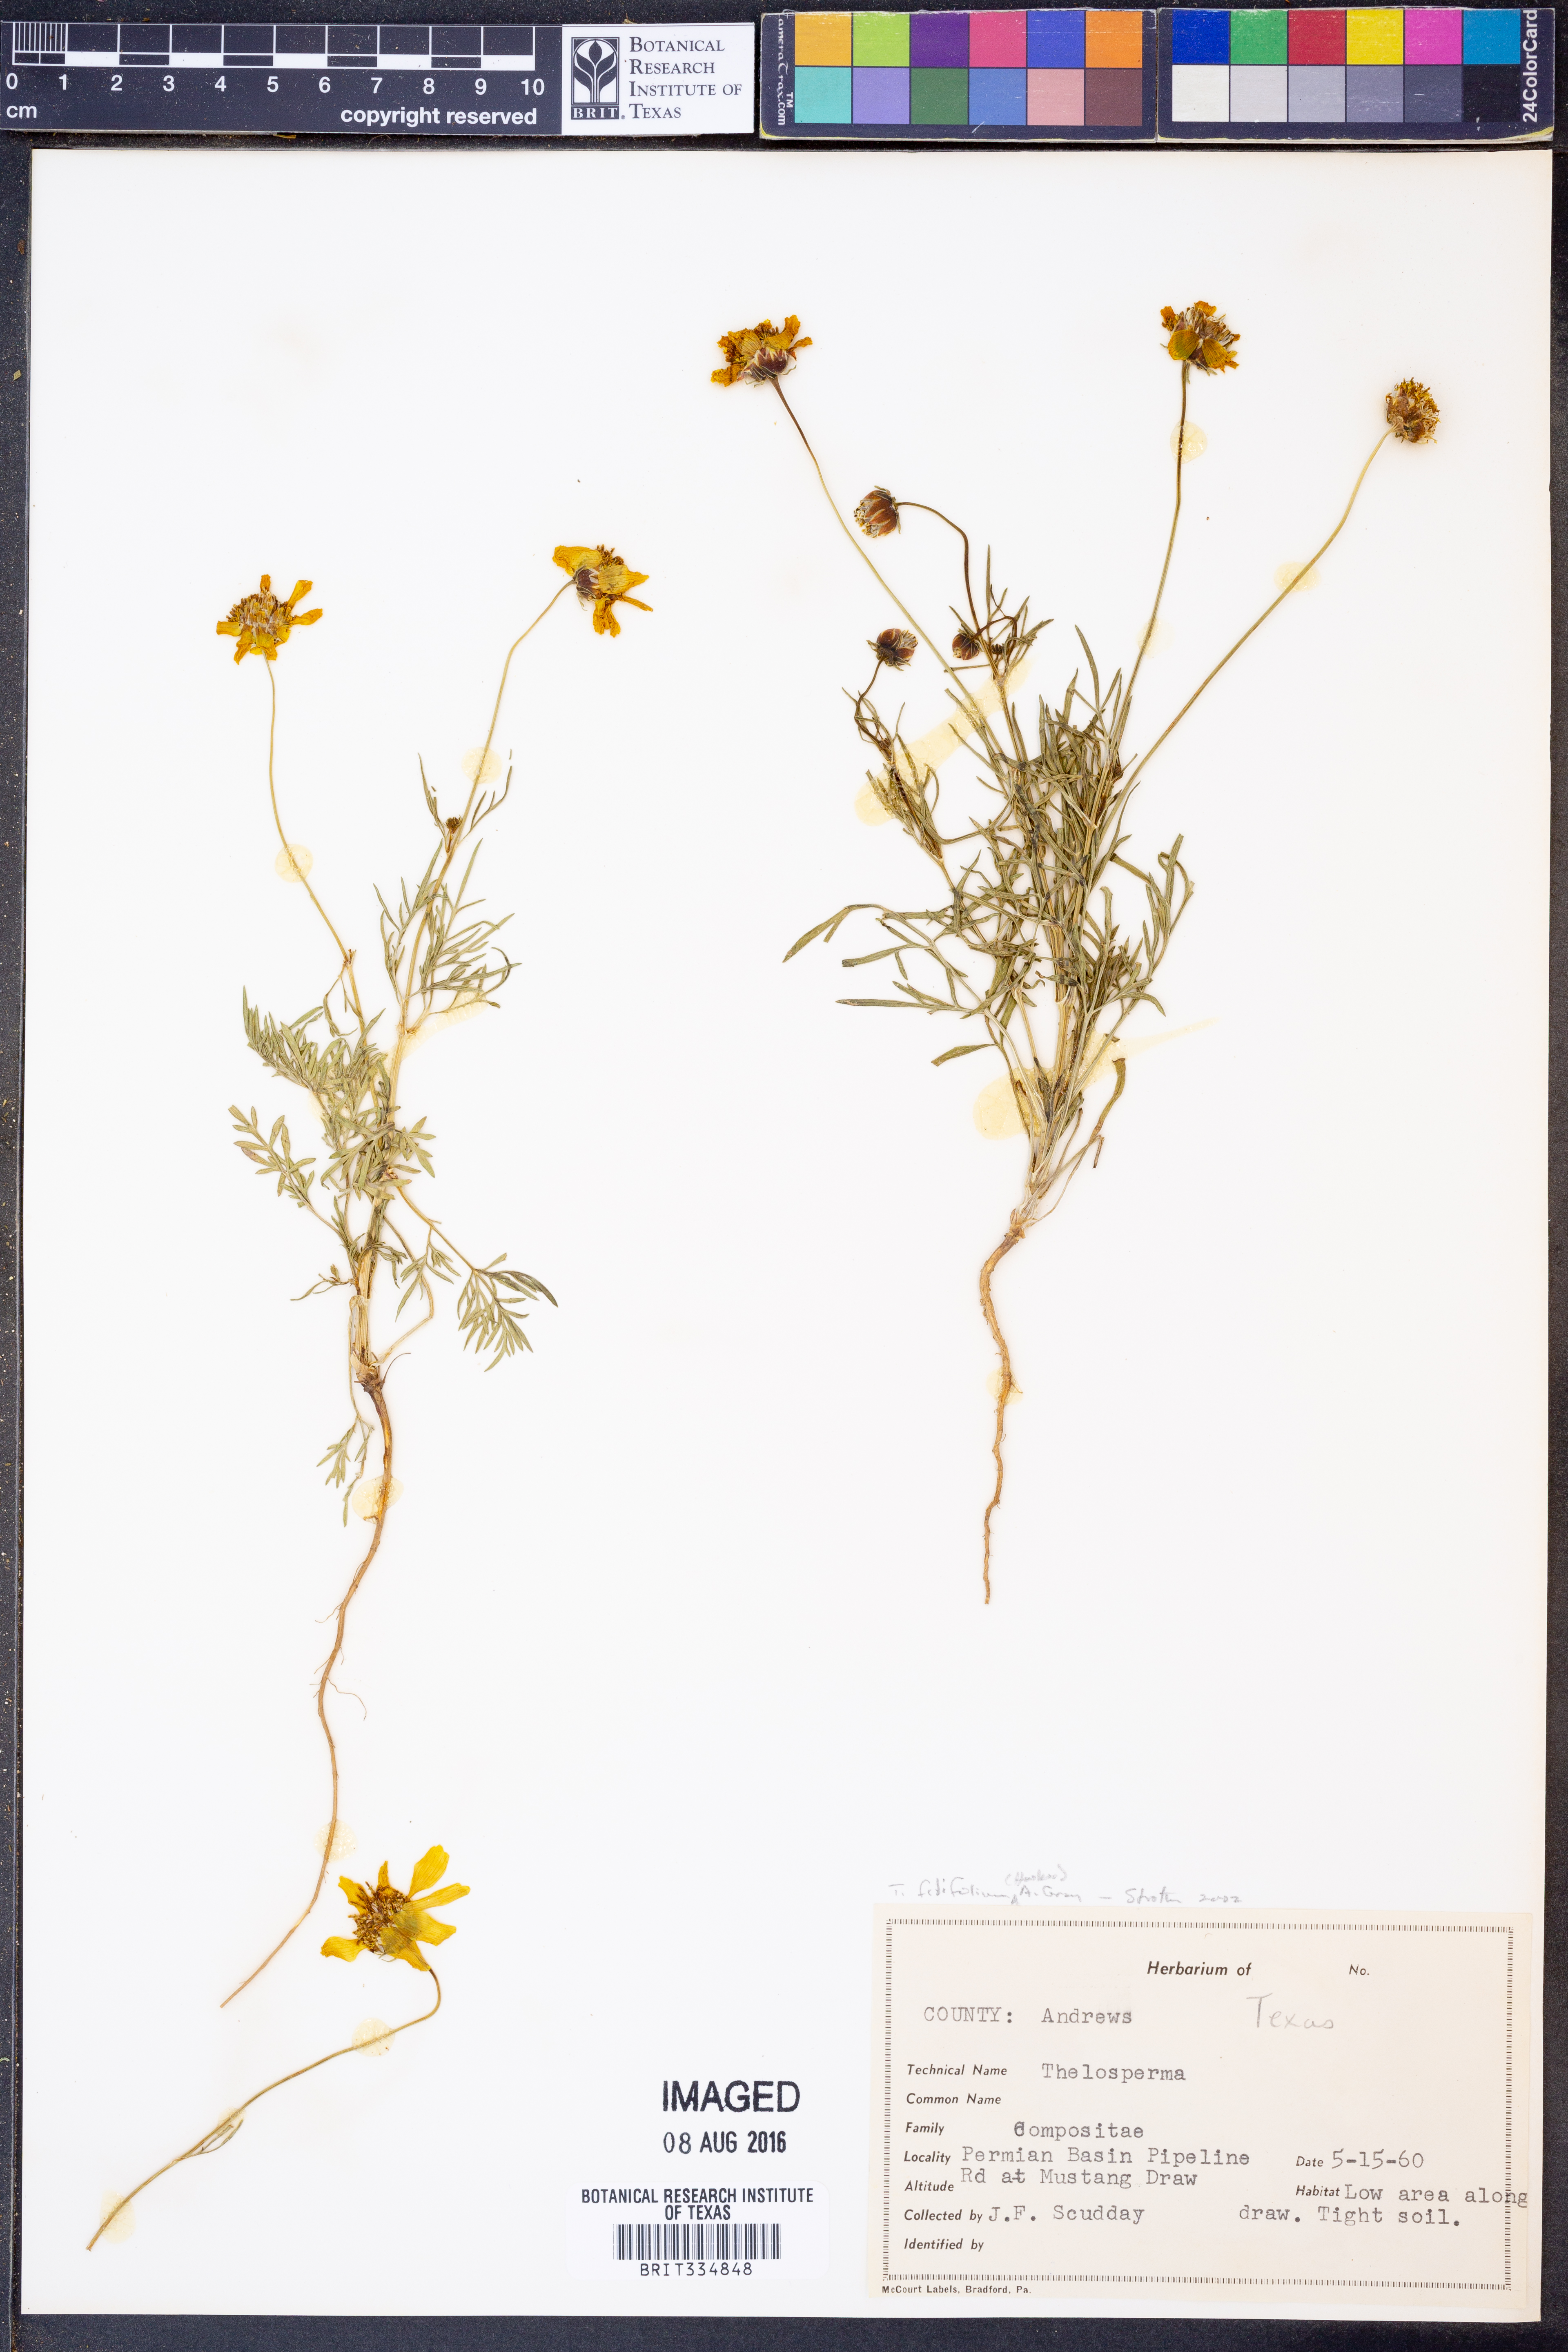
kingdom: Plantae
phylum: Tracheophyta
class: Magnoliopsida
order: Asterales
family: Asteraceae
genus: Thelesperma
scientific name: Thelesperma filifolium
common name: Stiff greenthread
